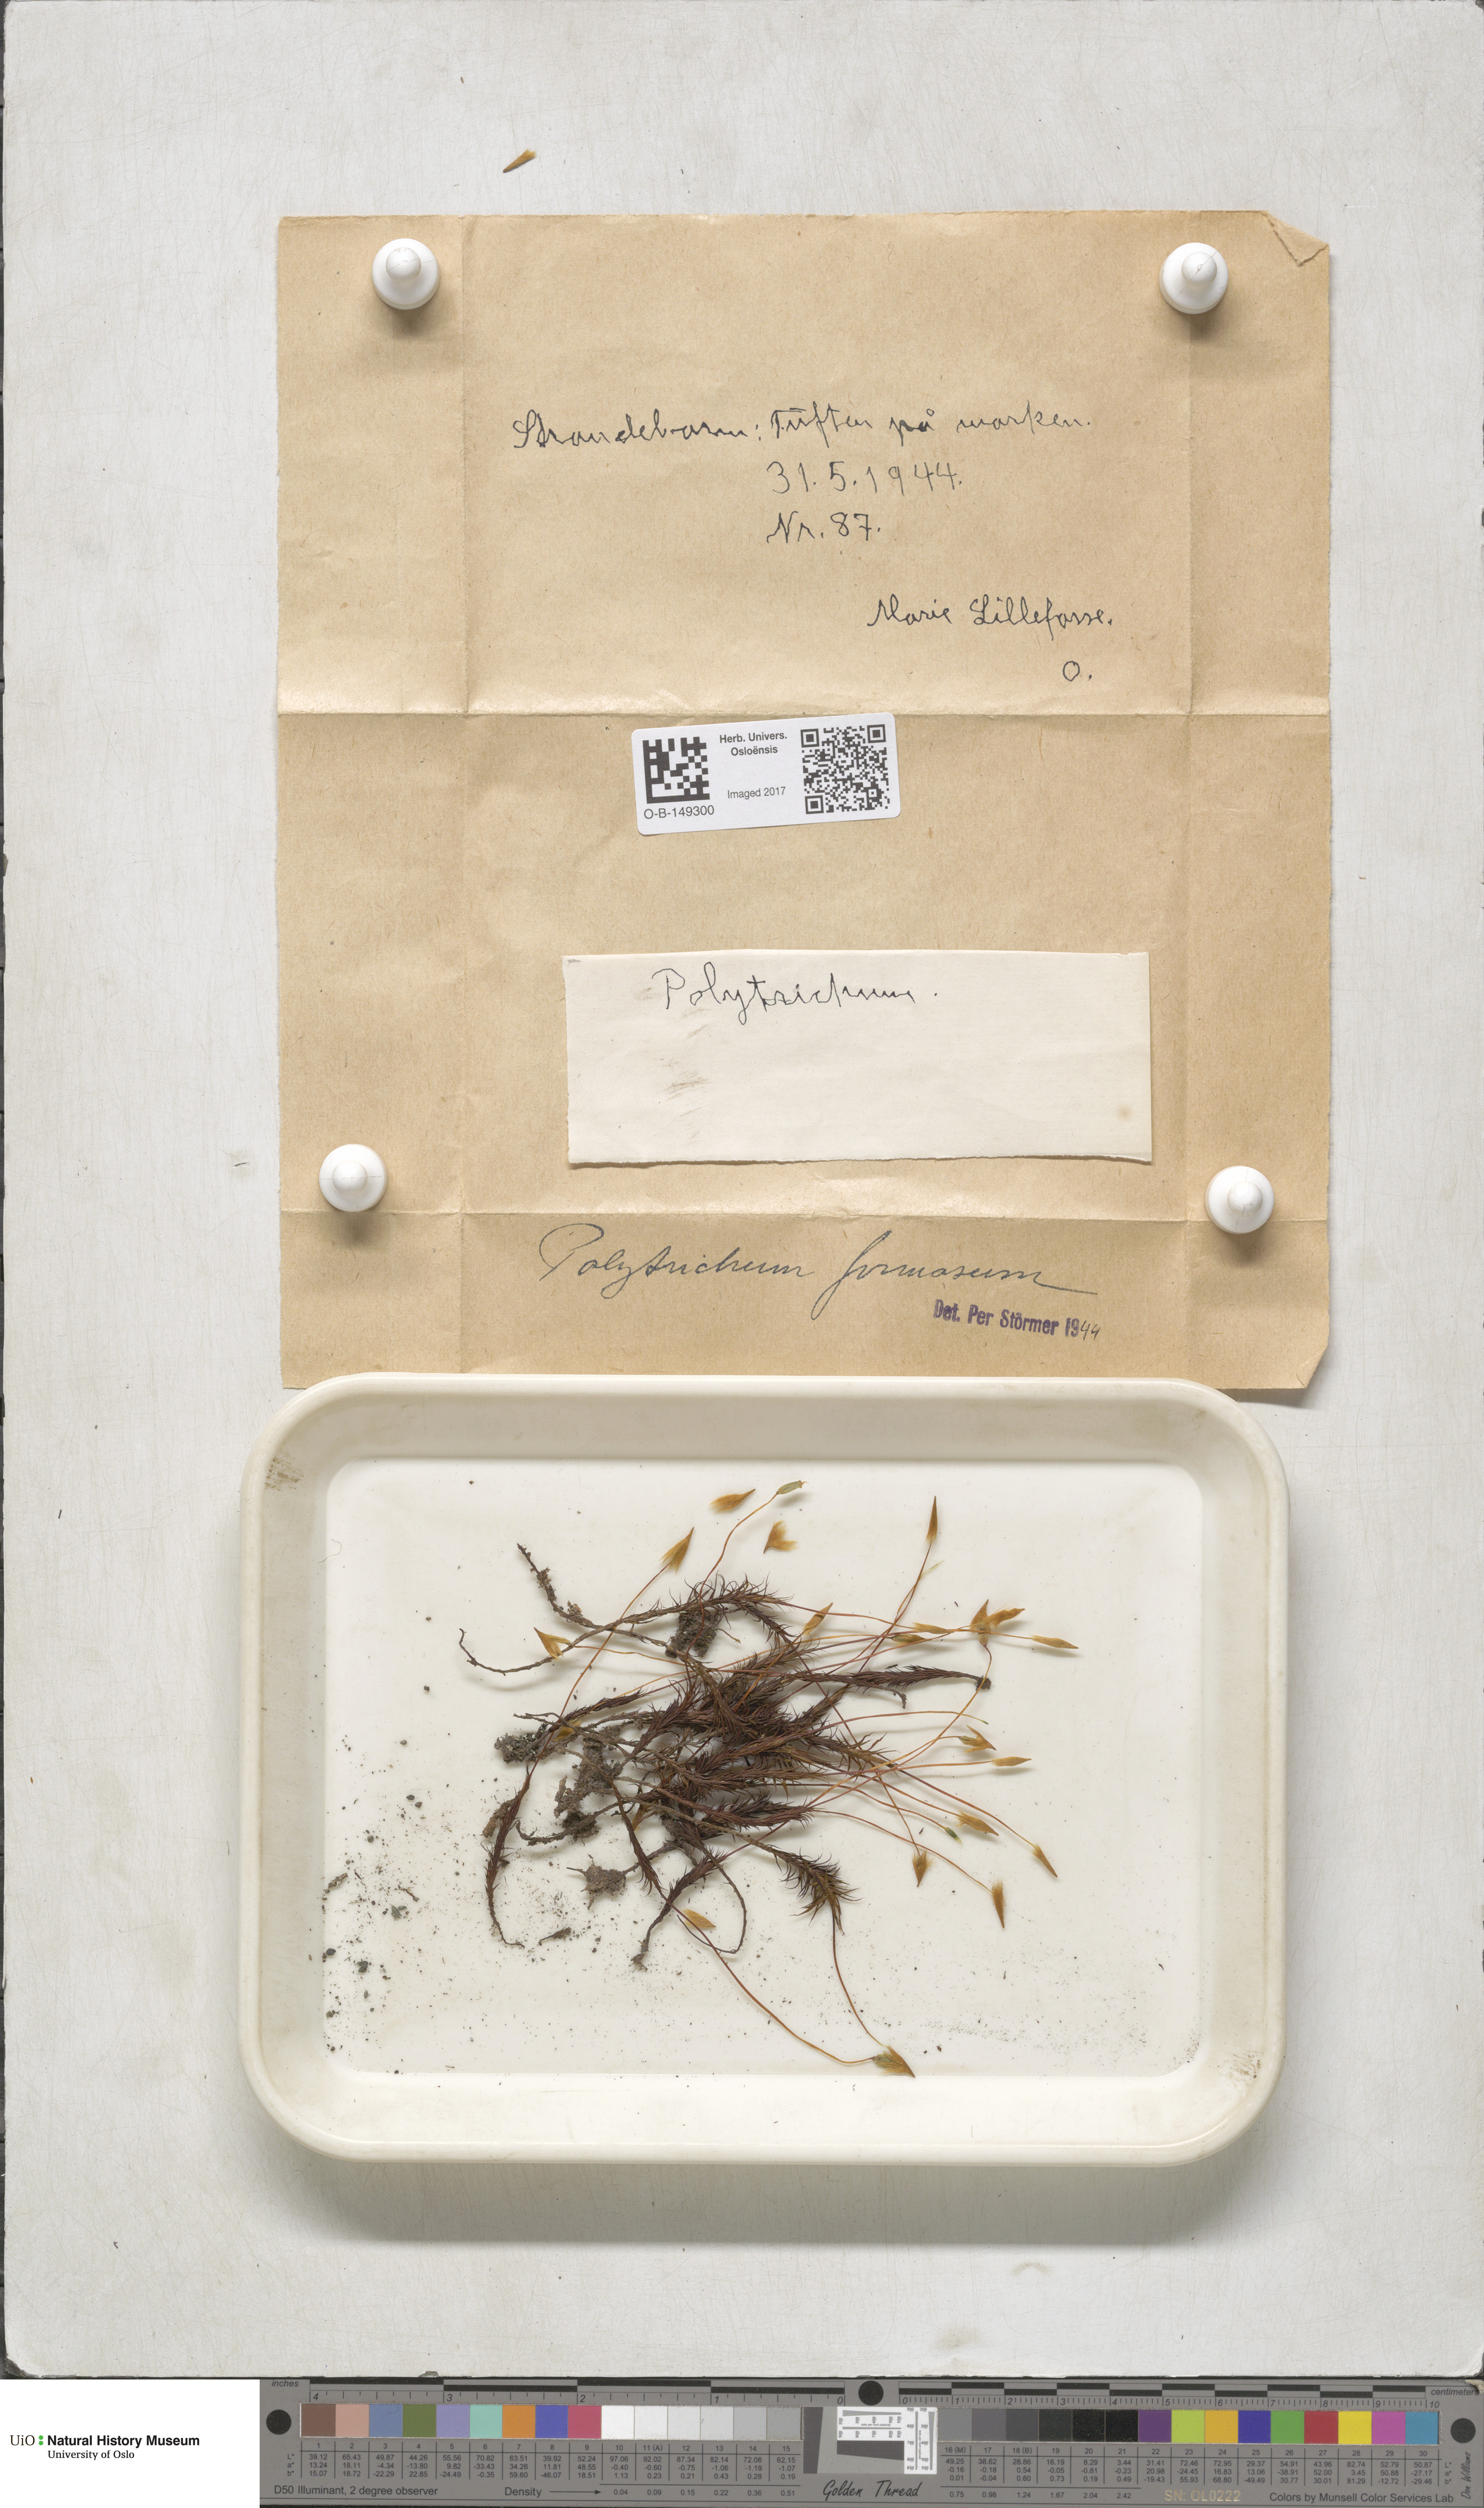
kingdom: Plantae
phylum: Bryophyta
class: Polytrichopsida
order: Polytrichales
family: Polytrichaceae
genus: Polytrichum
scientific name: Polytrichum formosum
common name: Bank haircap moss
